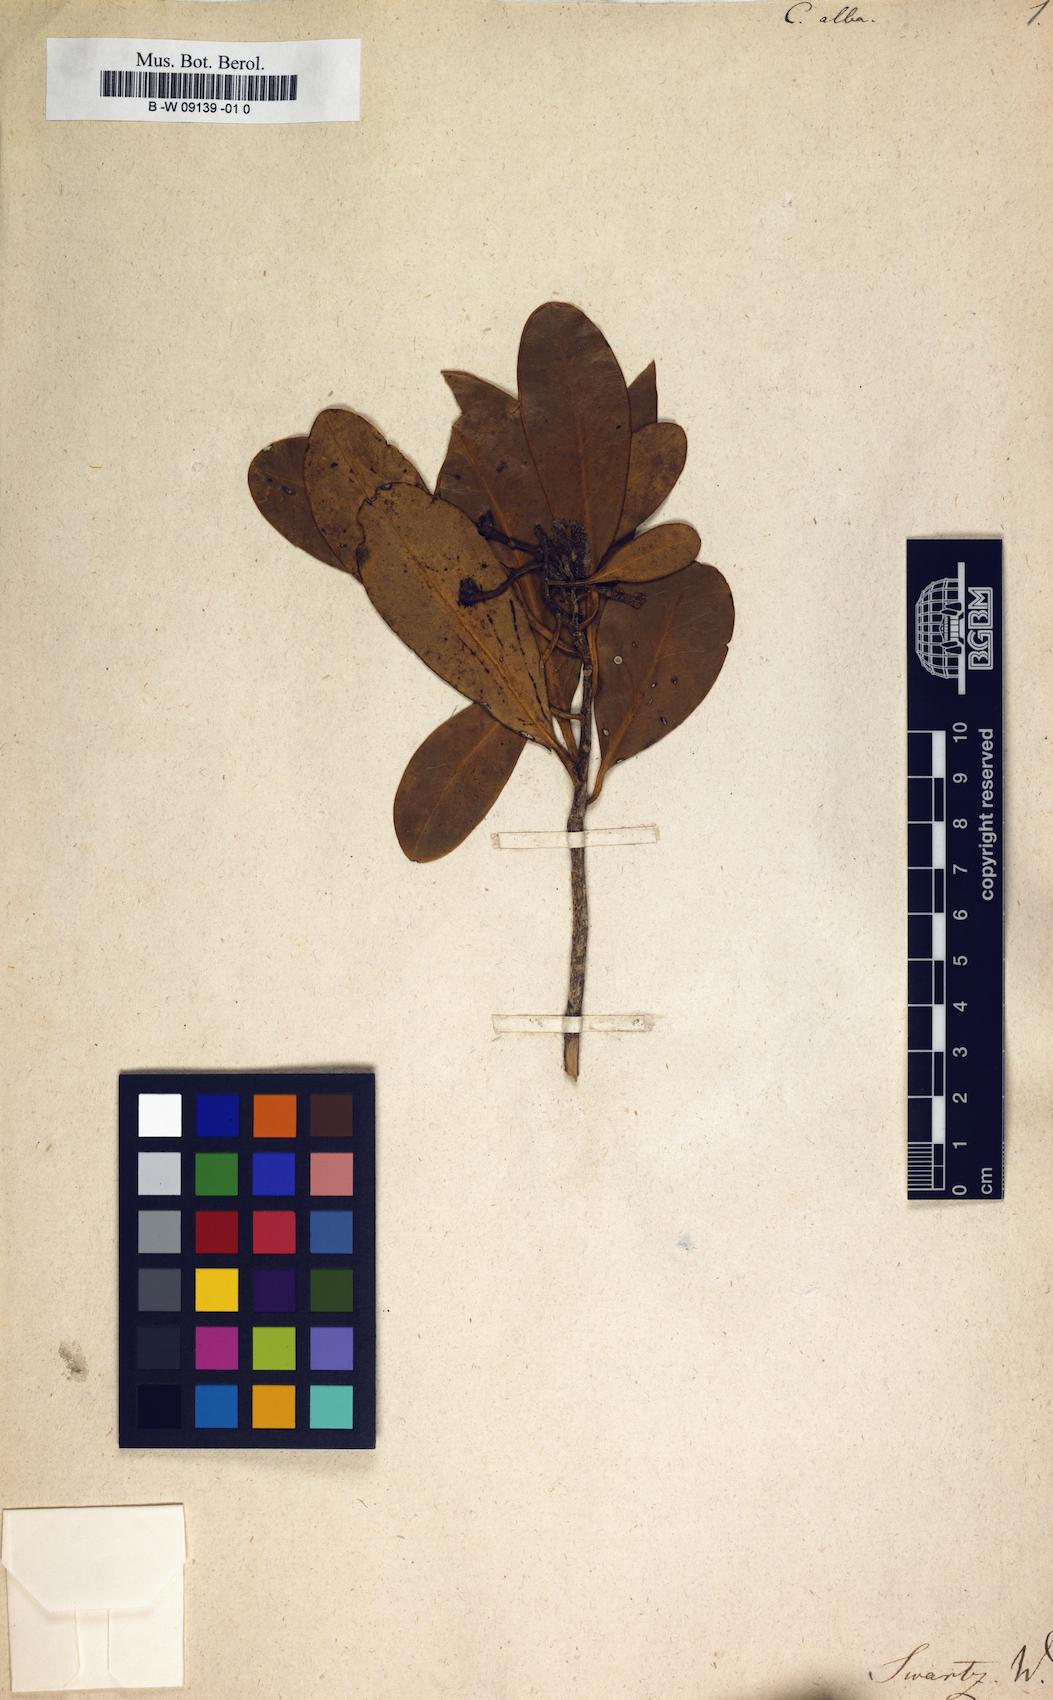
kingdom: Plantae
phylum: Tracheophyta
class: Magnoliopsida
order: Canellales
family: Canellaceae
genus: Canella
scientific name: Canella alba
